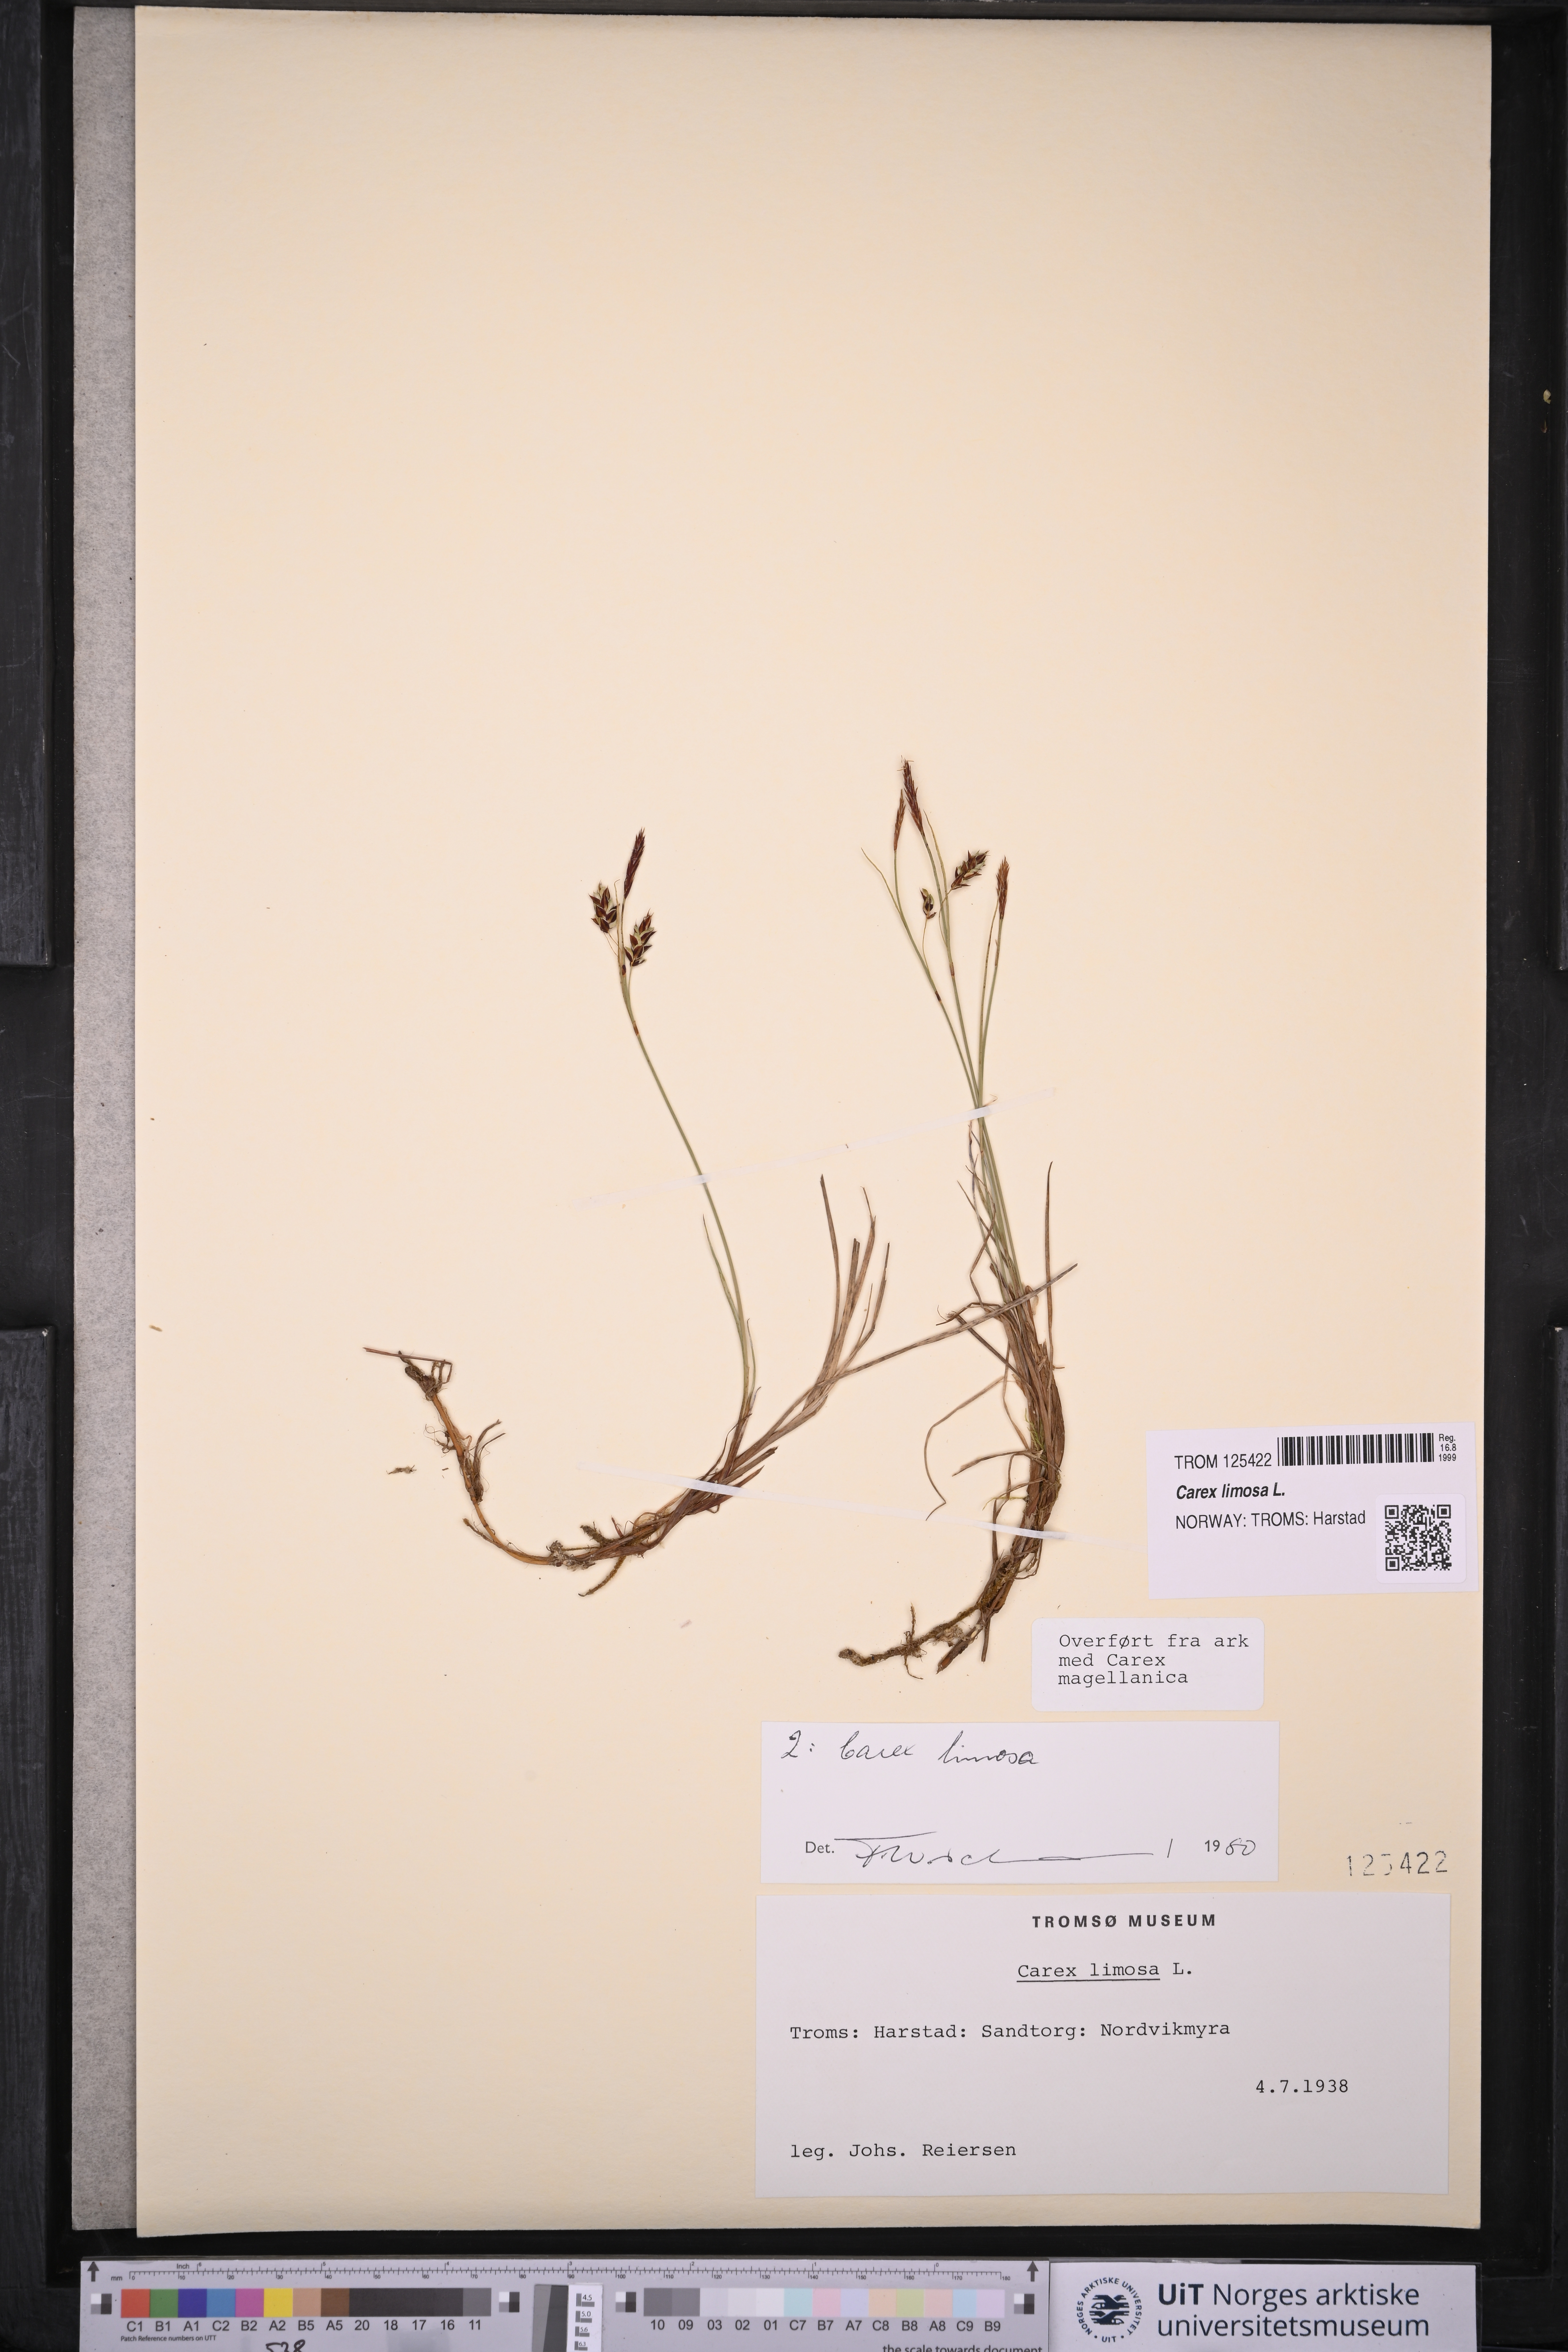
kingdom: Plantae
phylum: Tracheophyta
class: Liliopsida
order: Poales
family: Cyperaceae
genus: Carex
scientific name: Carex limosa
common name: Bog sedge
